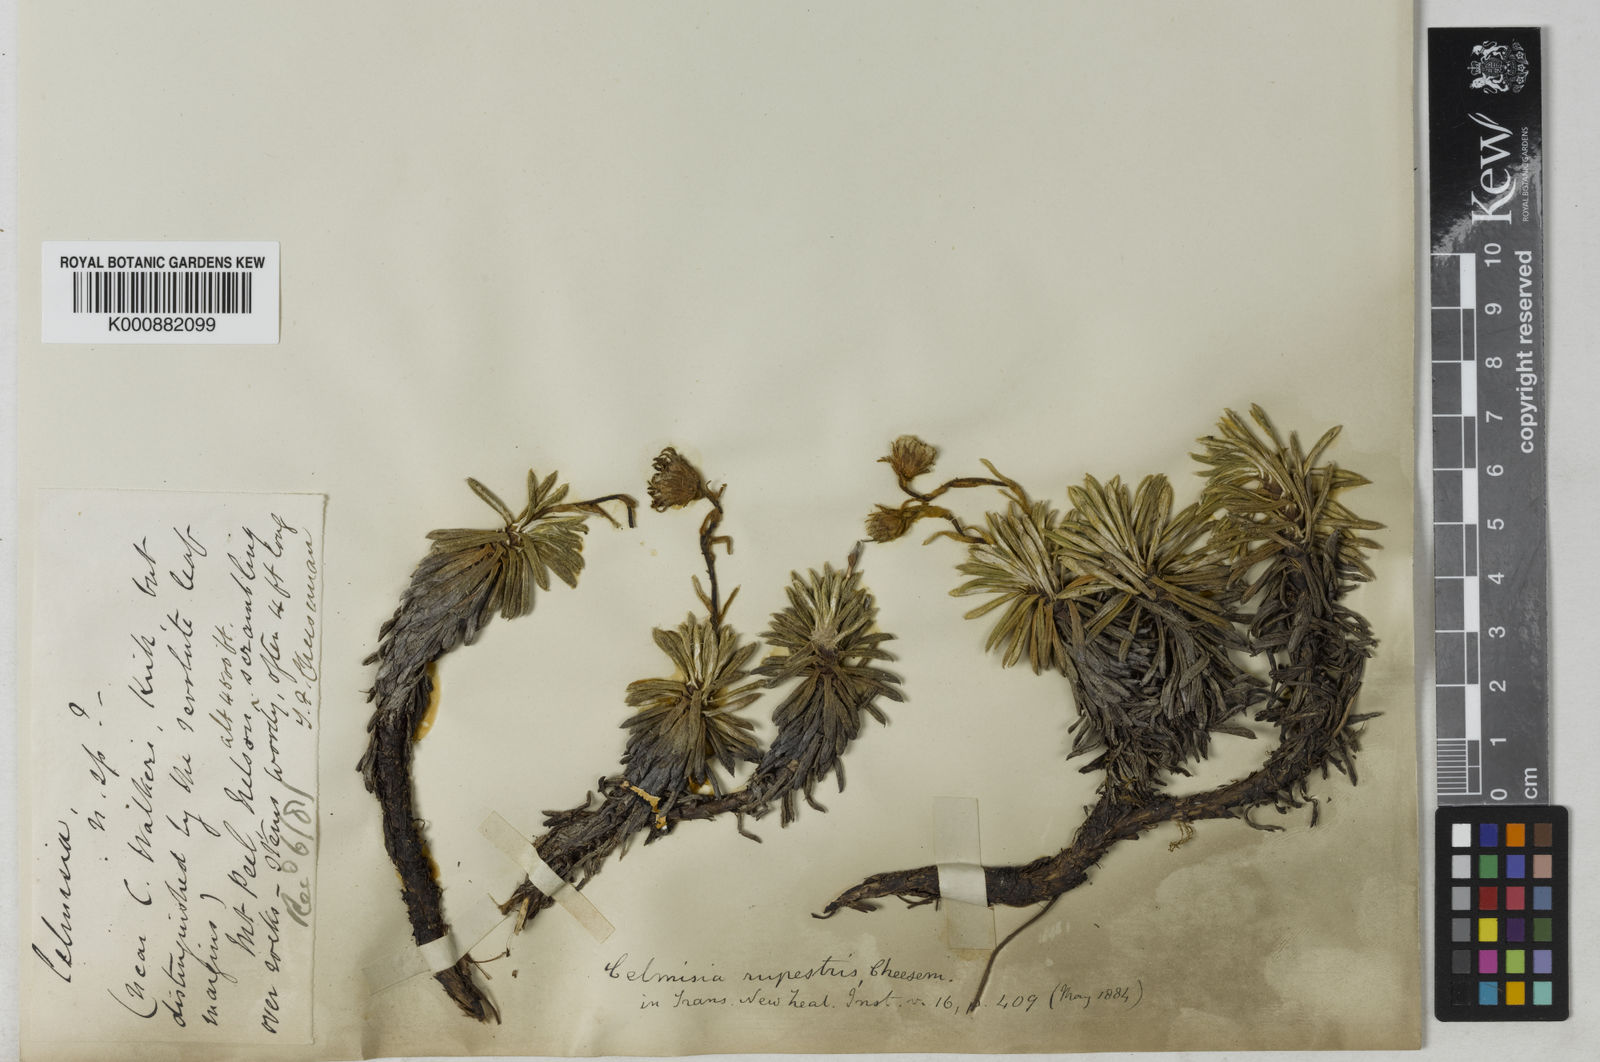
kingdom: Plantae
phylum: Tracheophyta
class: Magnoliopsida
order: Asterales
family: Asteraceae
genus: Celmisia
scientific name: Celmisia rupestris
